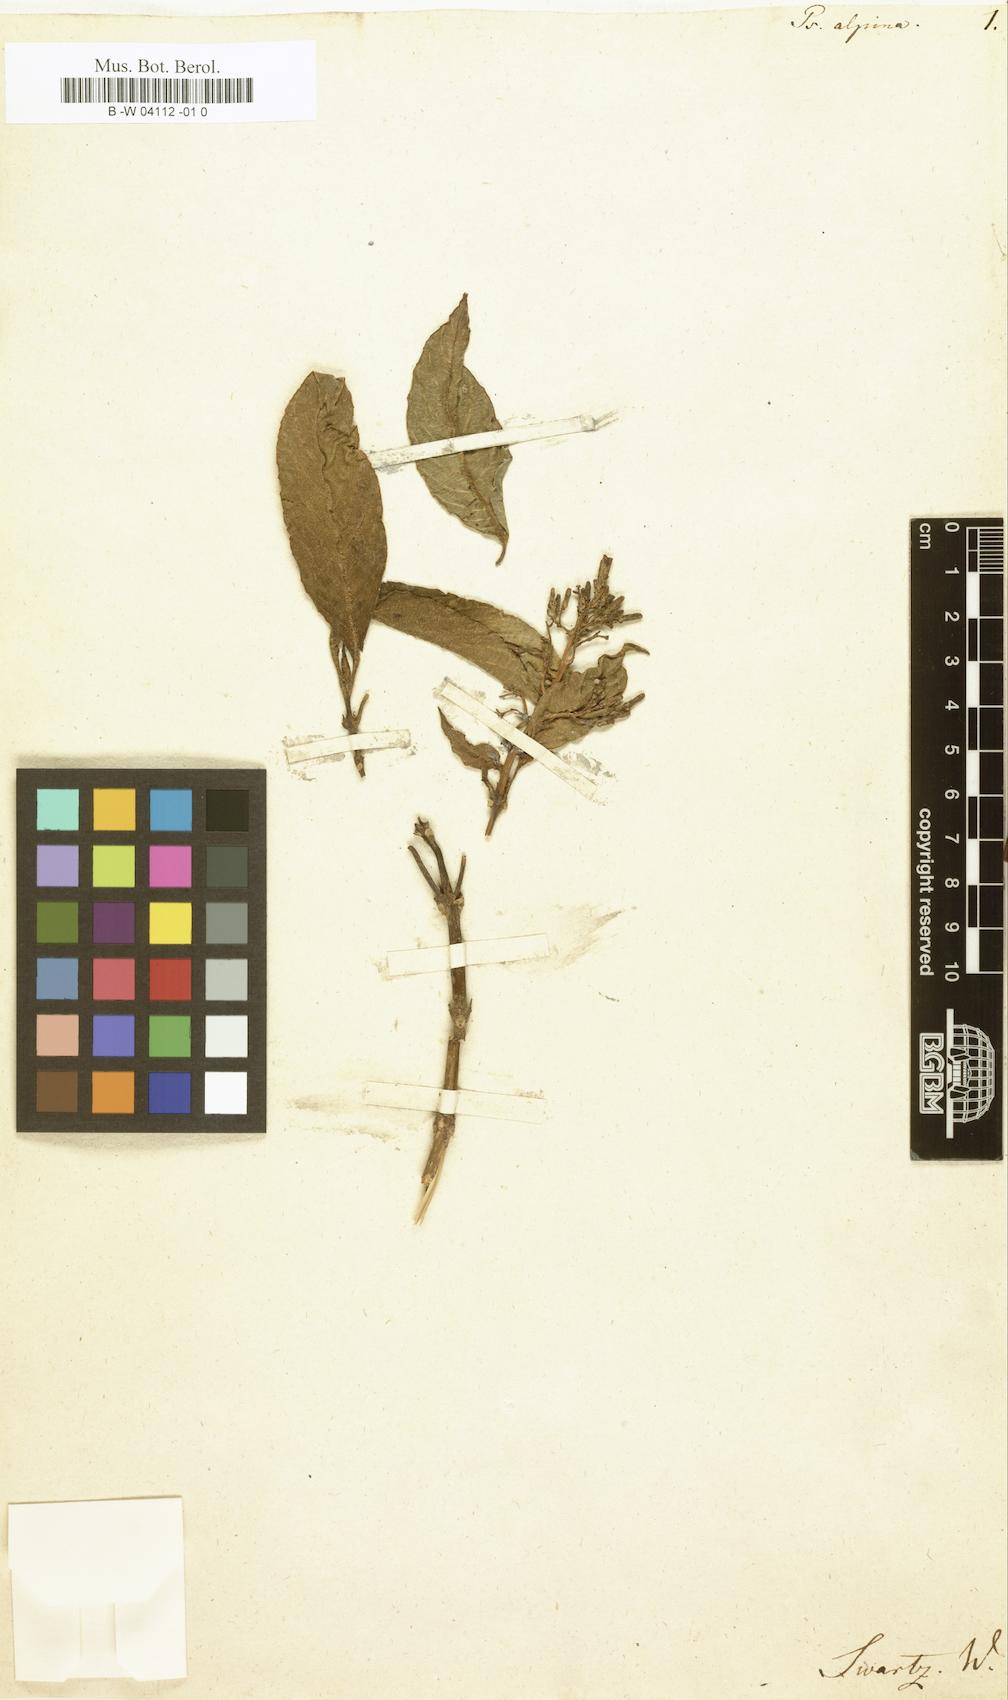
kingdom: Plantae
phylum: Tracheophyta
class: Magnoliopsida
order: Gentianales
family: Rubiaceae
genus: Psychotria
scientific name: Psychotria alpina
